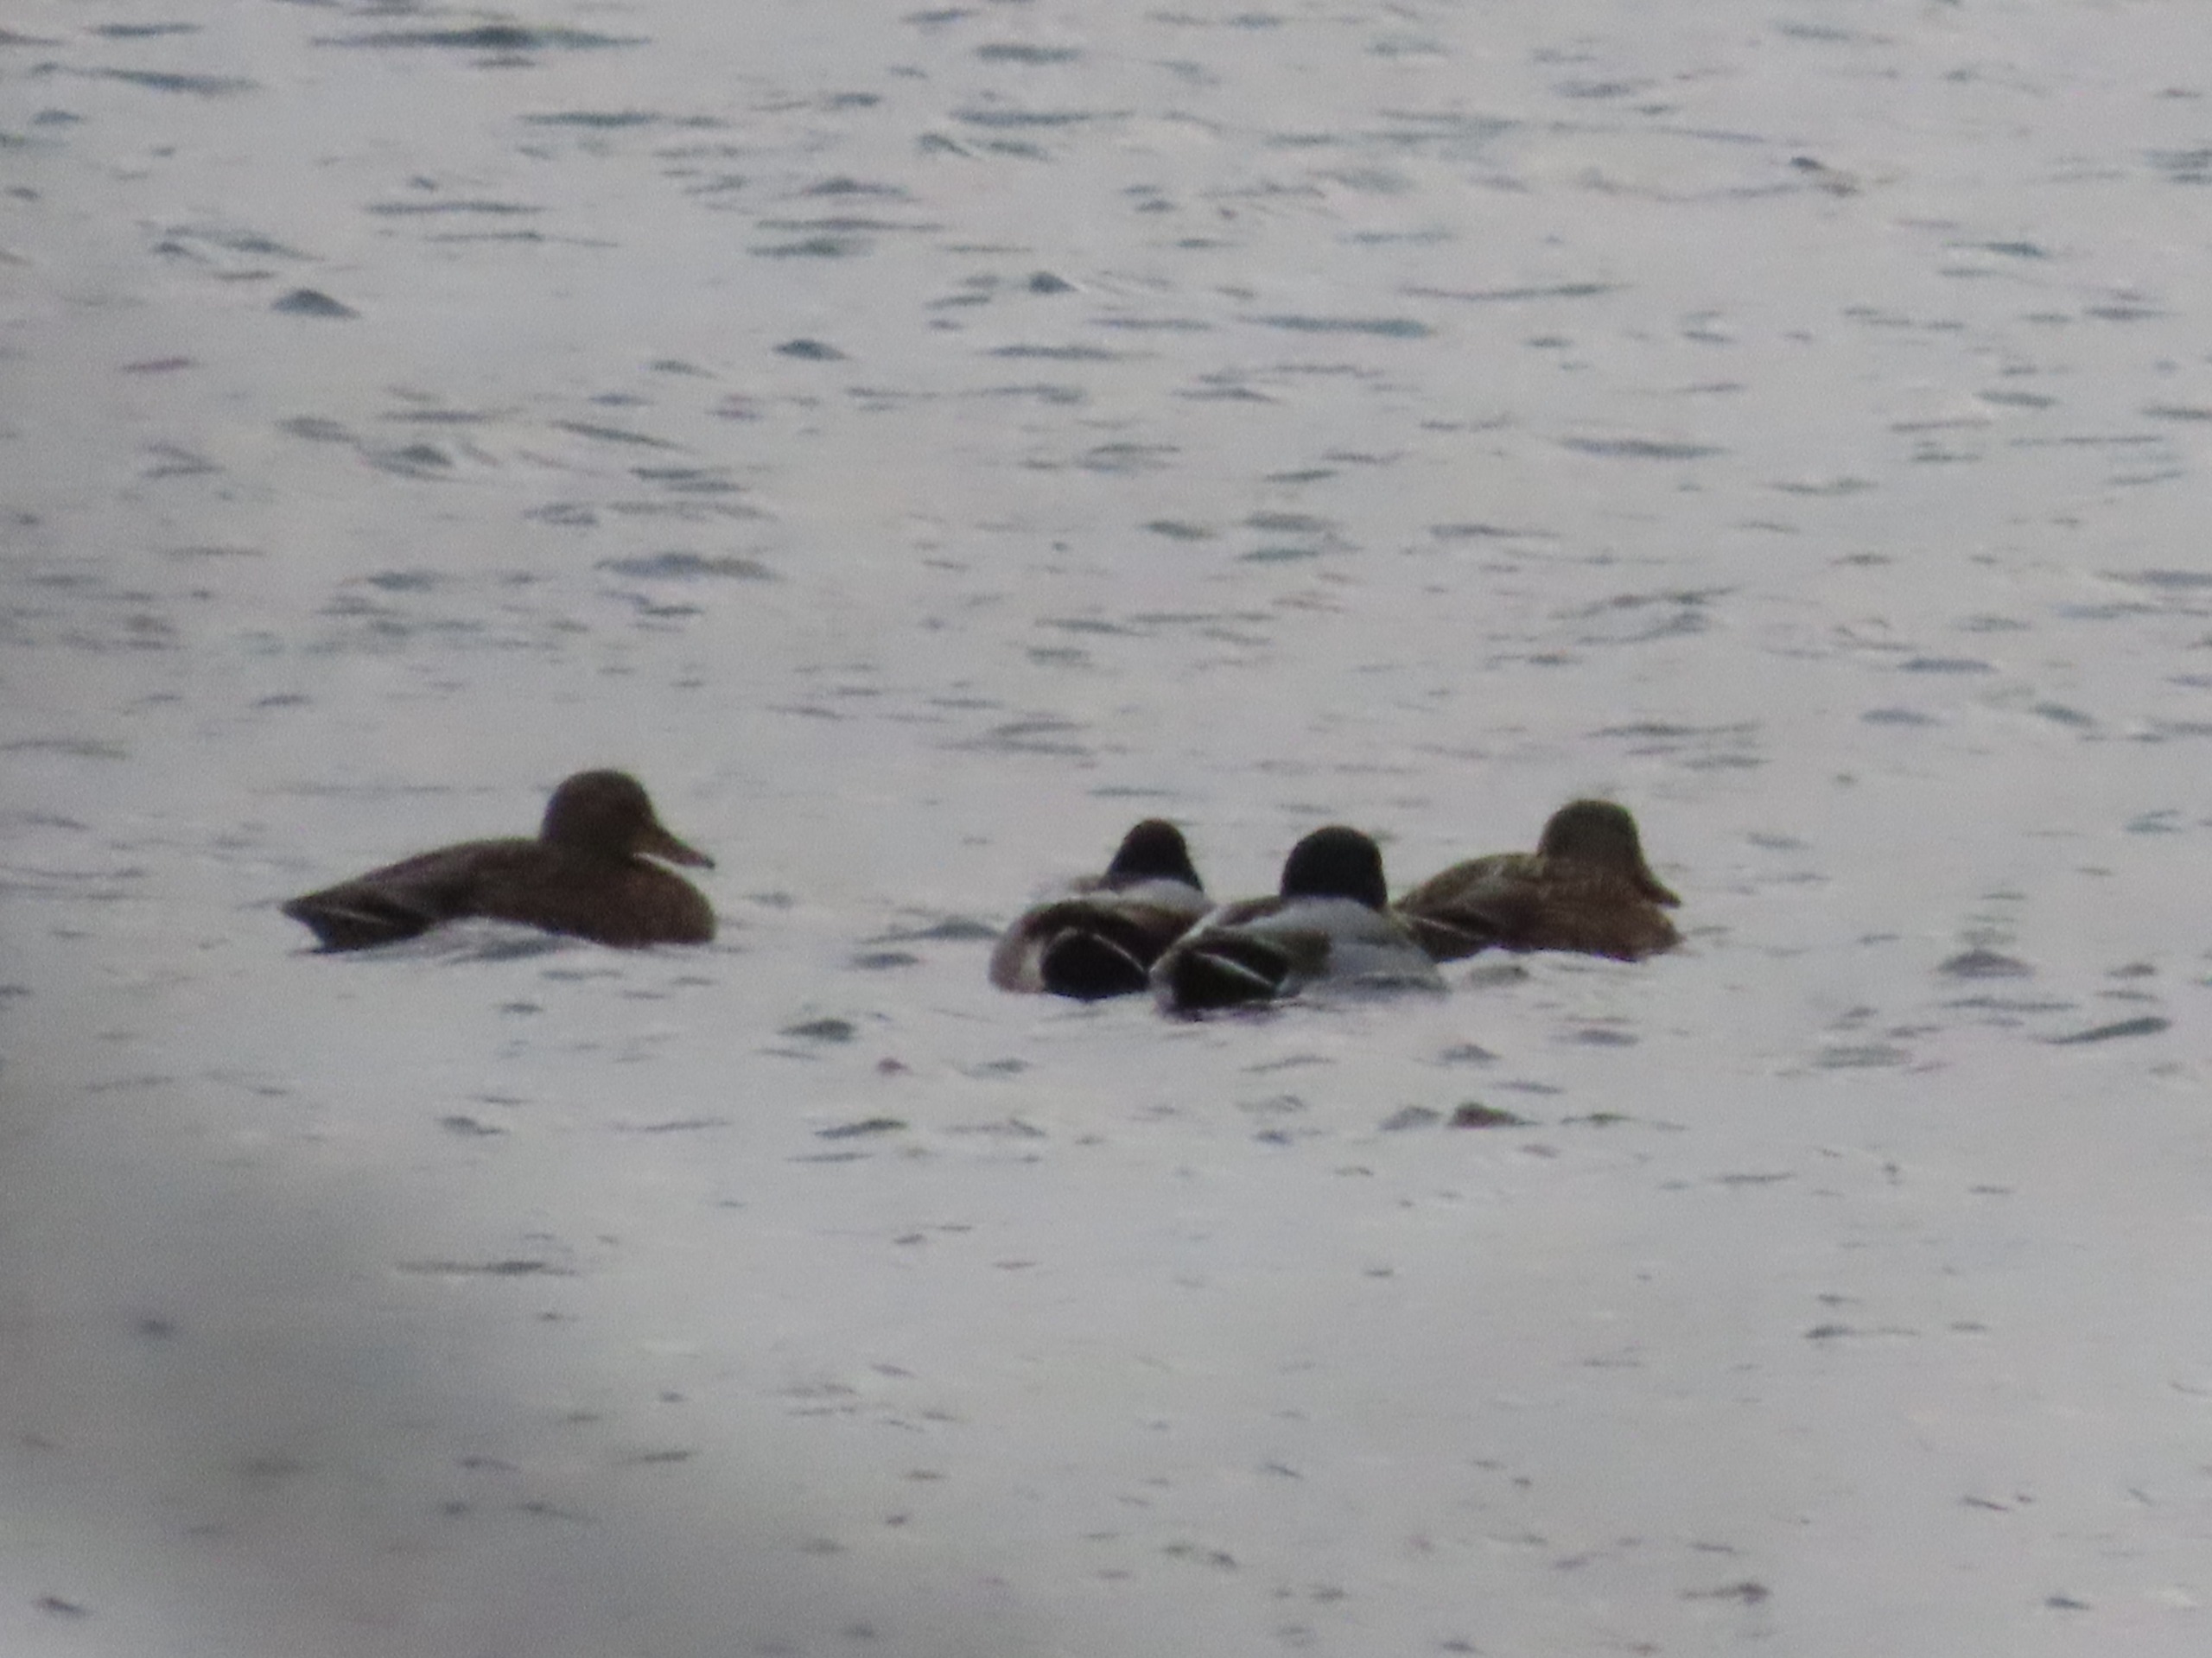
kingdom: Animalia
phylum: Chordata
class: Aves
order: Anseriformes
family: Anatidae
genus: Anas
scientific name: Anas platyrhynchos
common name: Gråand
